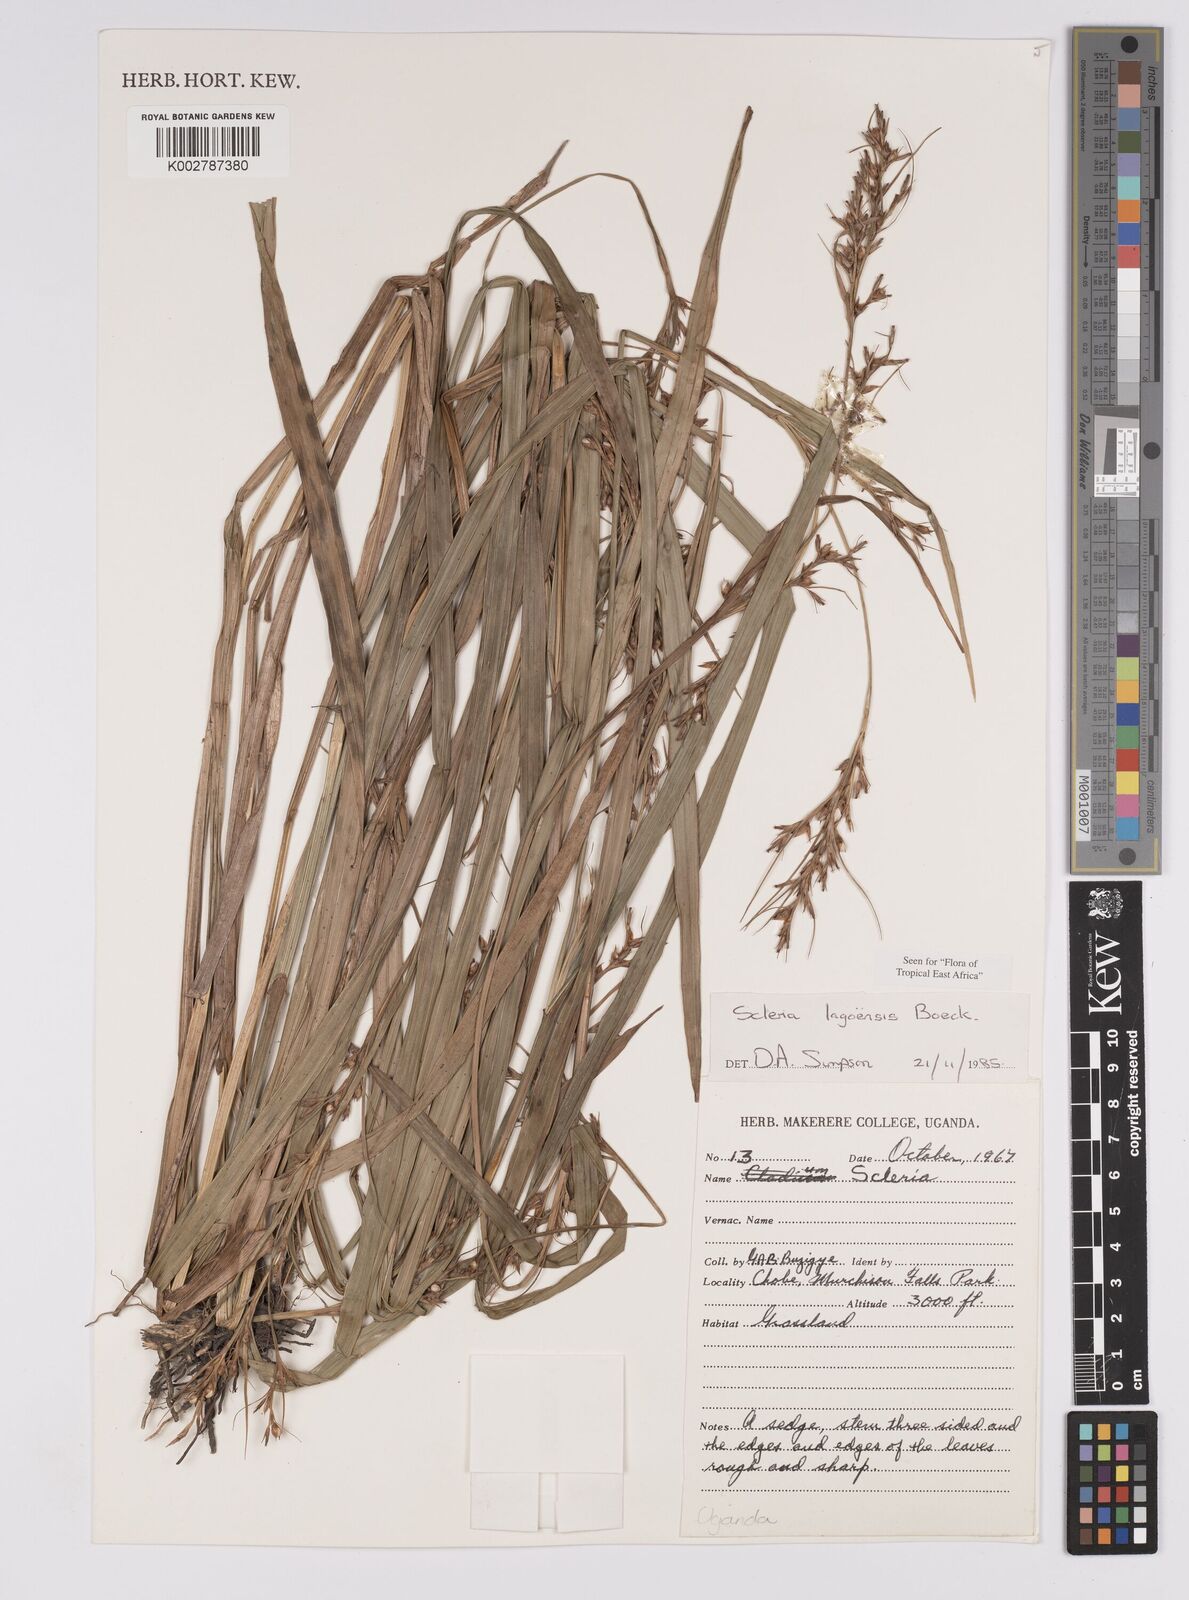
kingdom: Plantae
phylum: Tracheophyta
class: Liliopsida
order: Poales
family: Cyperaceae
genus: Scleria
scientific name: Scleria lagoensis
